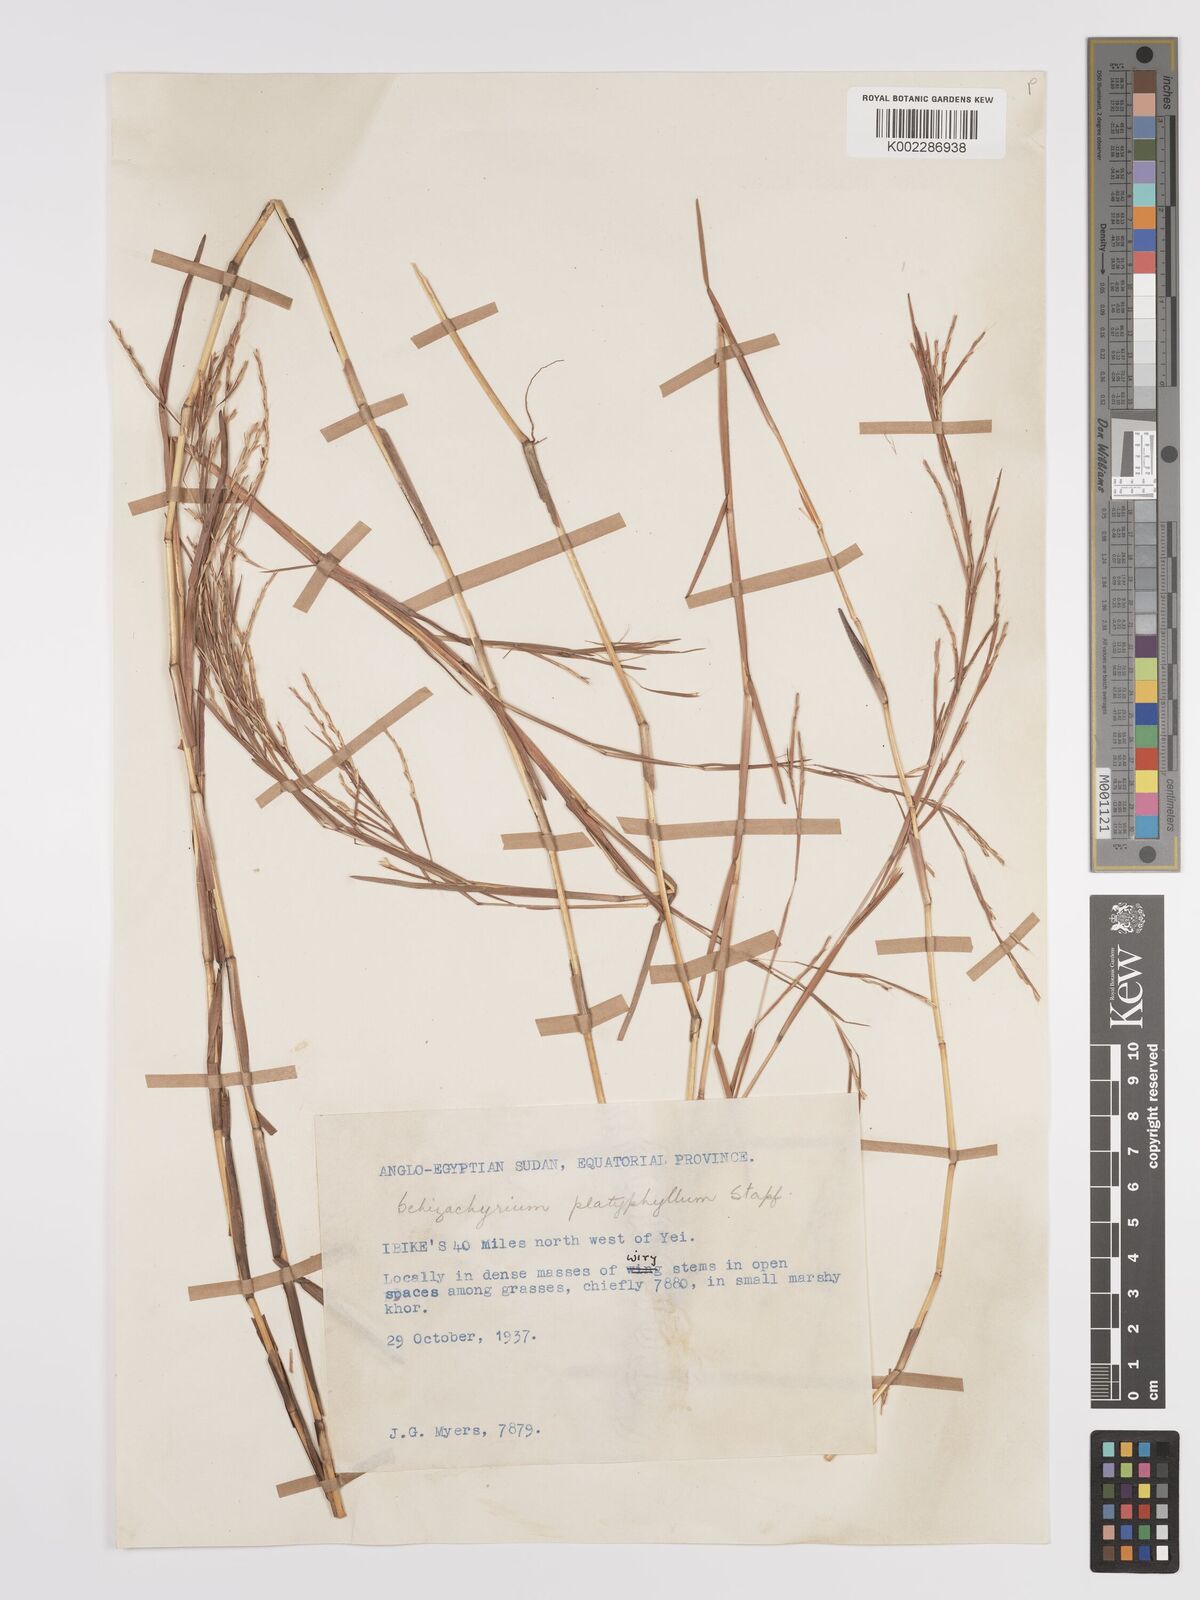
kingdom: Plantae
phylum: Tracheophyta
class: Liliopsida
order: Poales
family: Poaceae
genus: Schizachyrium
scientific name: Schizachyrium platyphyllum
